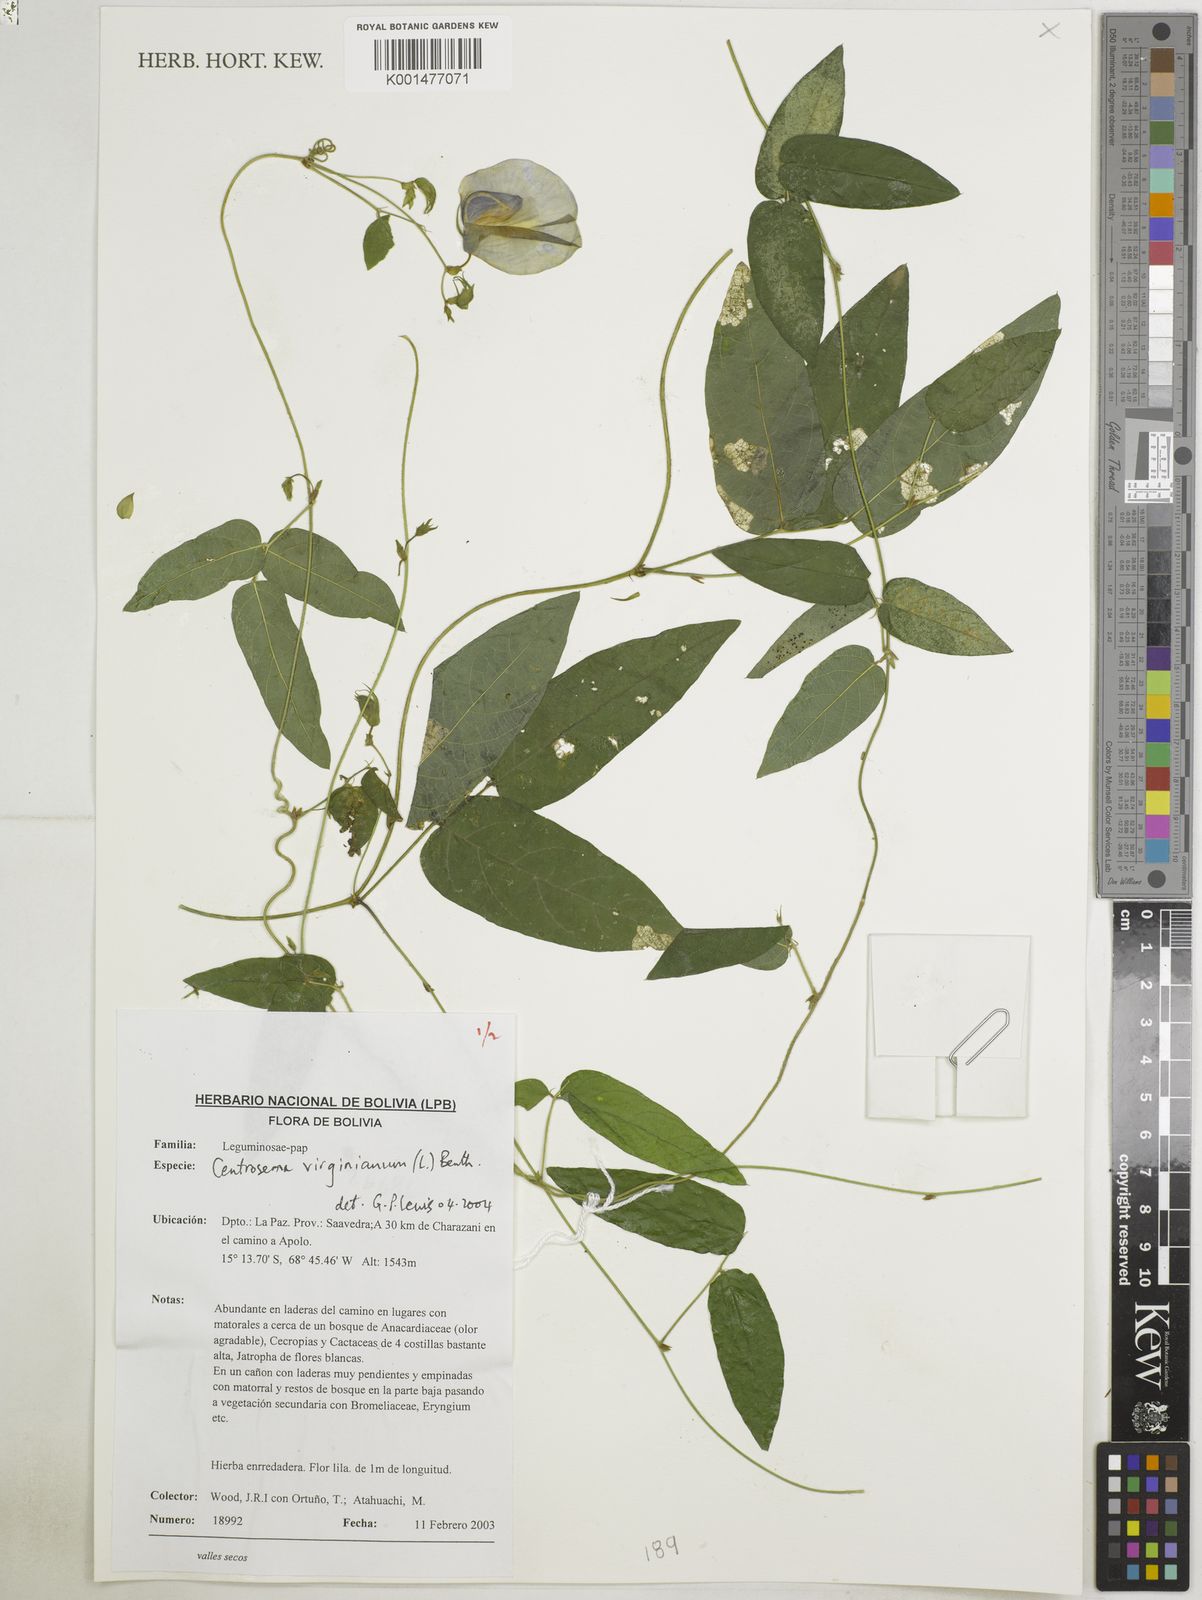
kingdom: Plantae
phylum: Tracheophyta
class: Magnoliopsida
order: Fabales
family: Fabaceae
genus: Centrosema
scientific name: Centrosema virginianum
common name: Butterfly-pea
